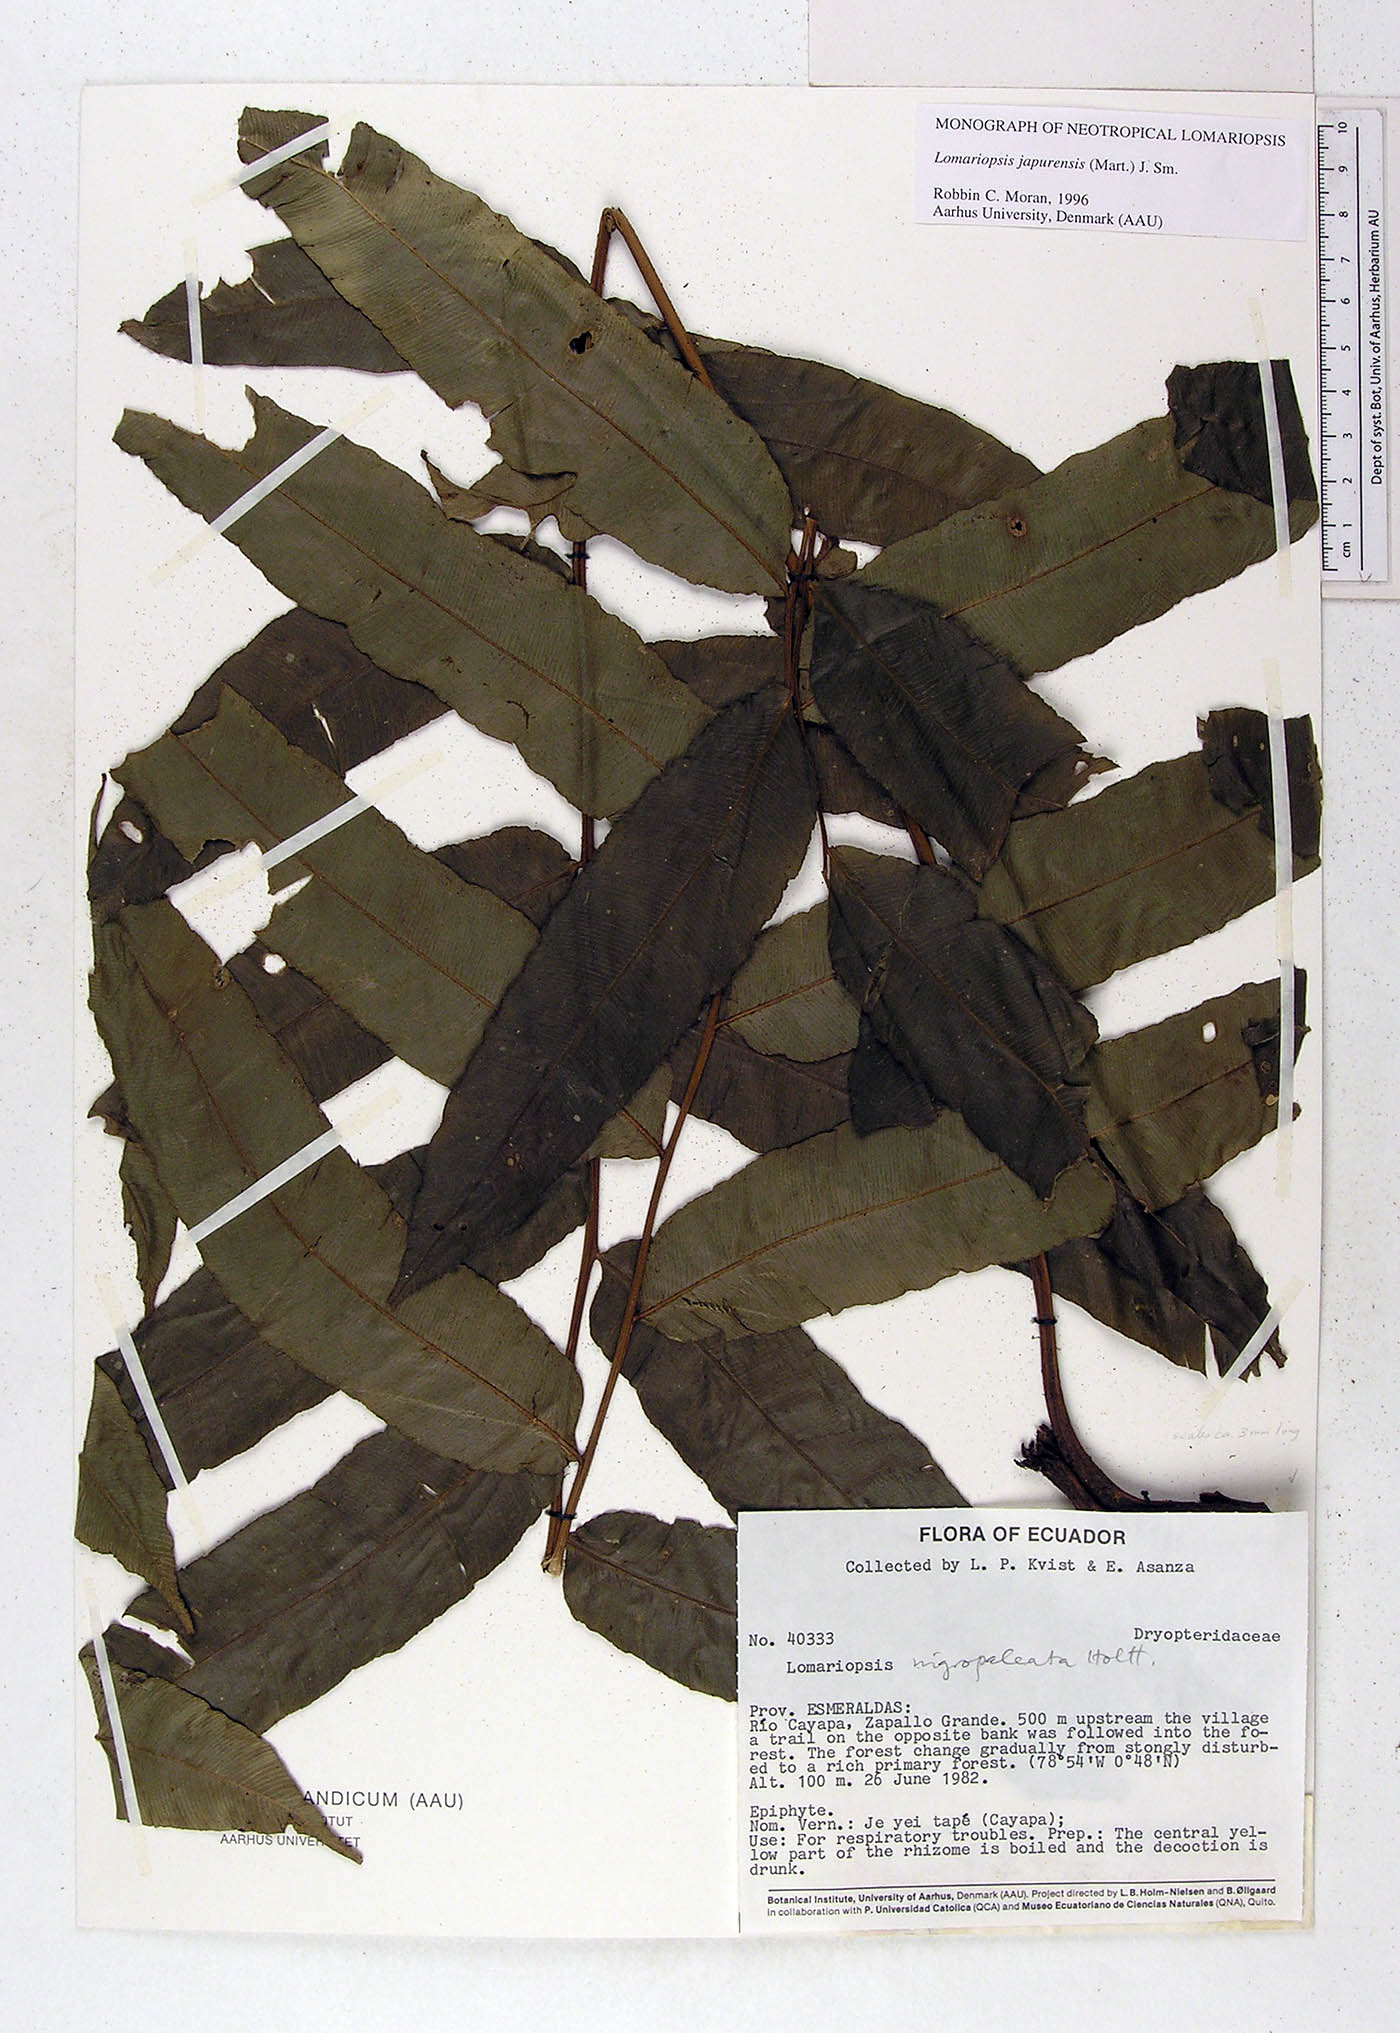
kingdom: Plantae
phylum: Tracheophyta
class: Polypodiopsida
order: Polypodiales
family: Lomariopsidaceae
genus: Lomariopsis
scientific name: Lomariopsis nigropaleata
